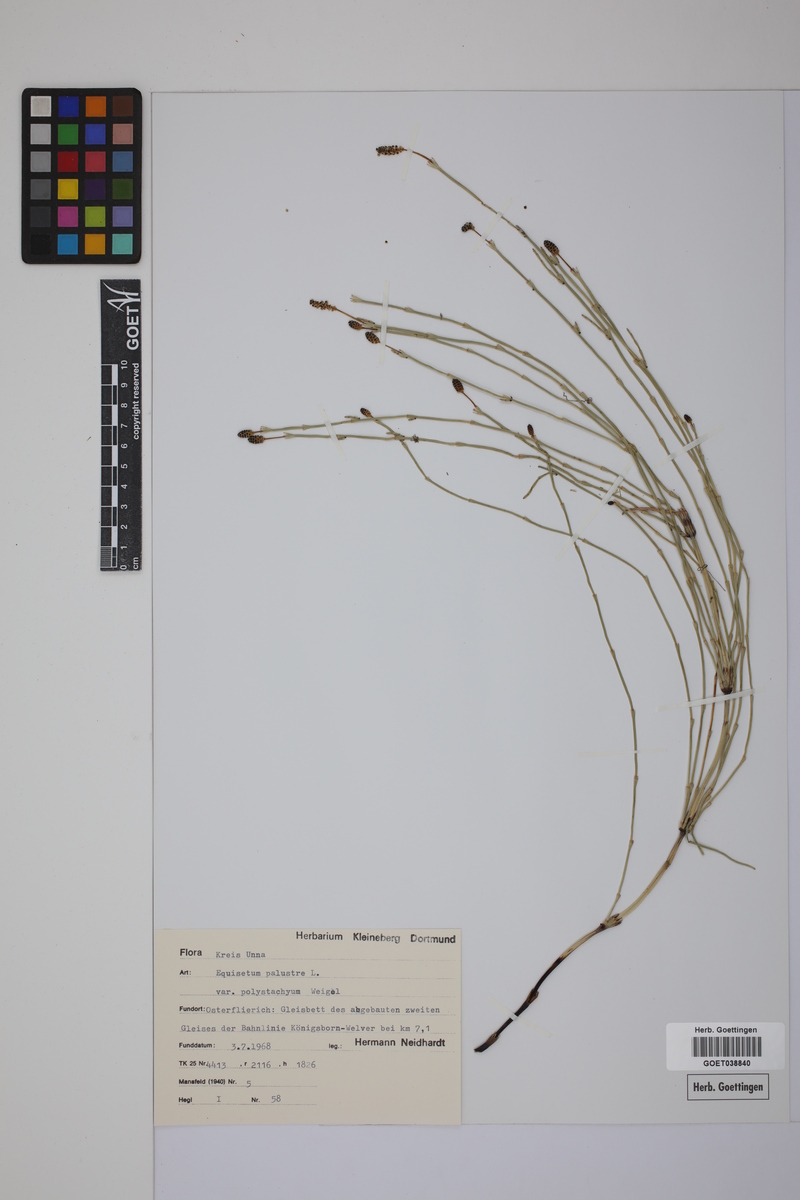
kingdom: Plantae
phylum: Tracheophyta
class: Polypodiopsida
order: Equisetales
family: Equisetaceae
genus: Equisetum
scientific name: Equisetum palustre
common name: Marsh horsetail
